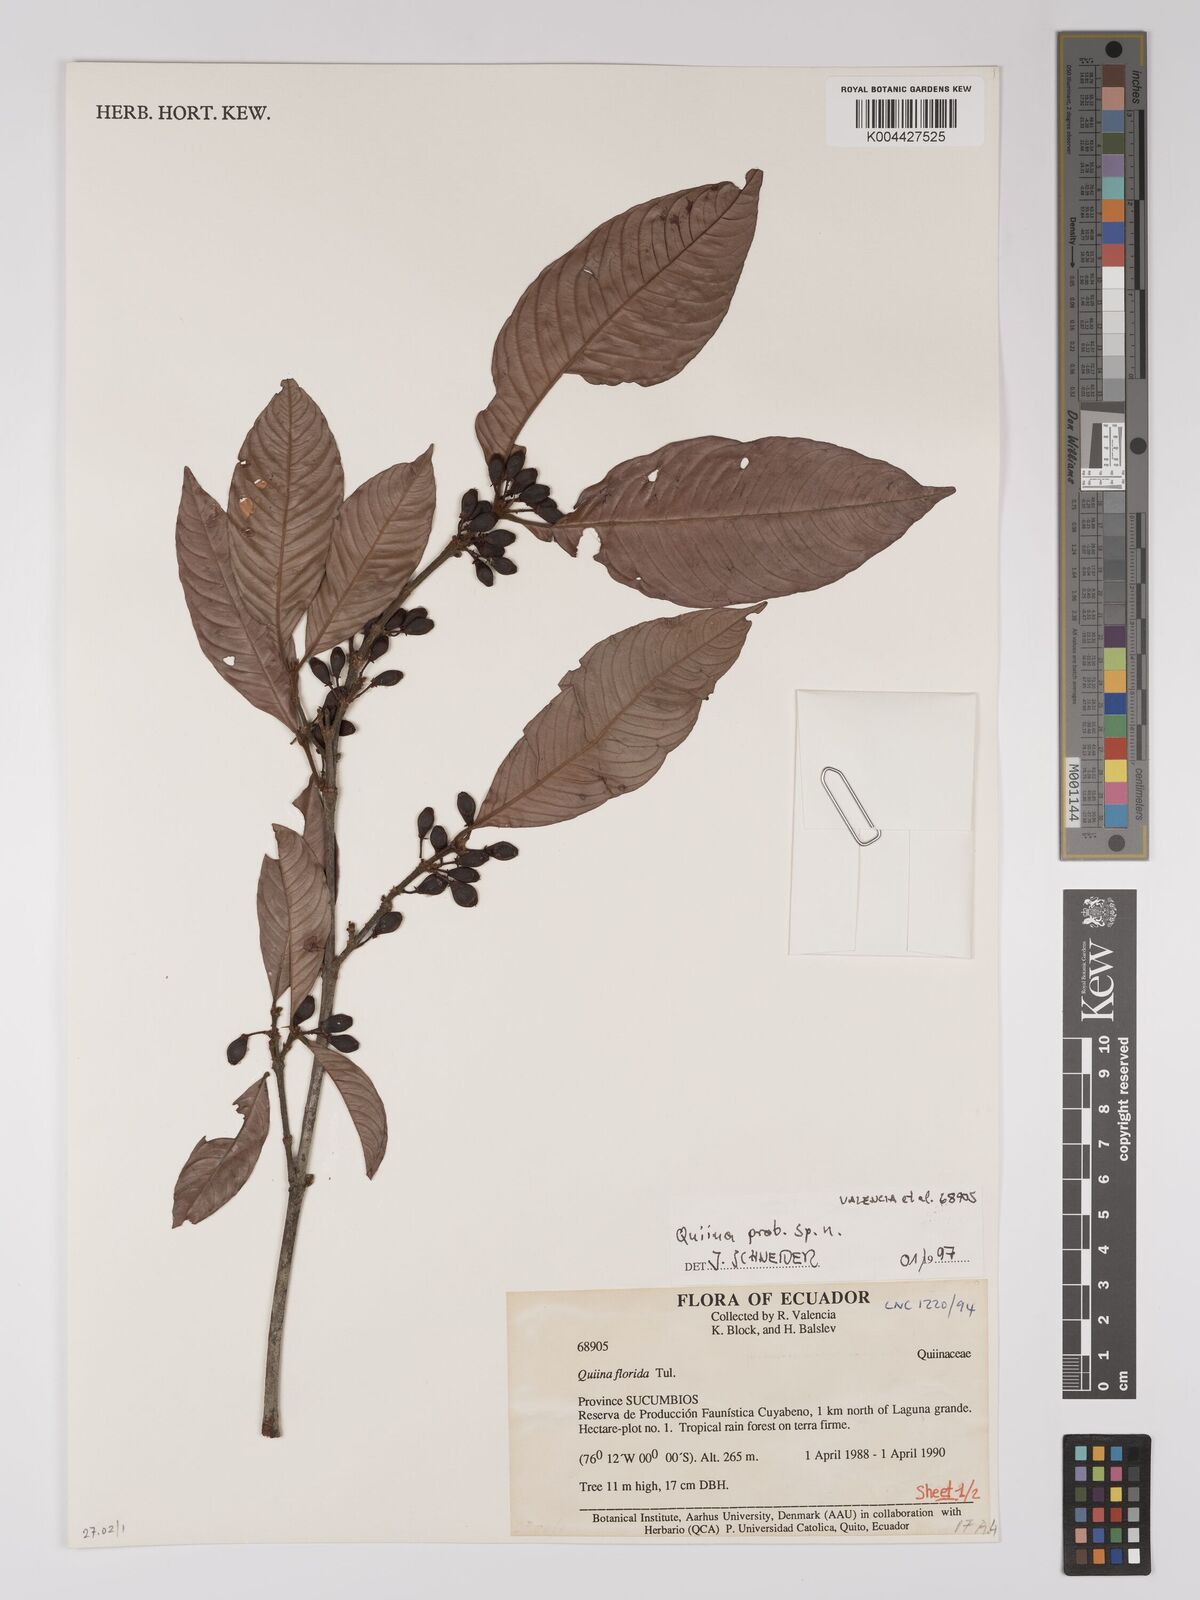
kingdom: Plantae
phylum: Tracheophyta
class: Magnoliopsida
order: Malpighiales
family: Ochnaceae
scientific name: Ochnaceae
